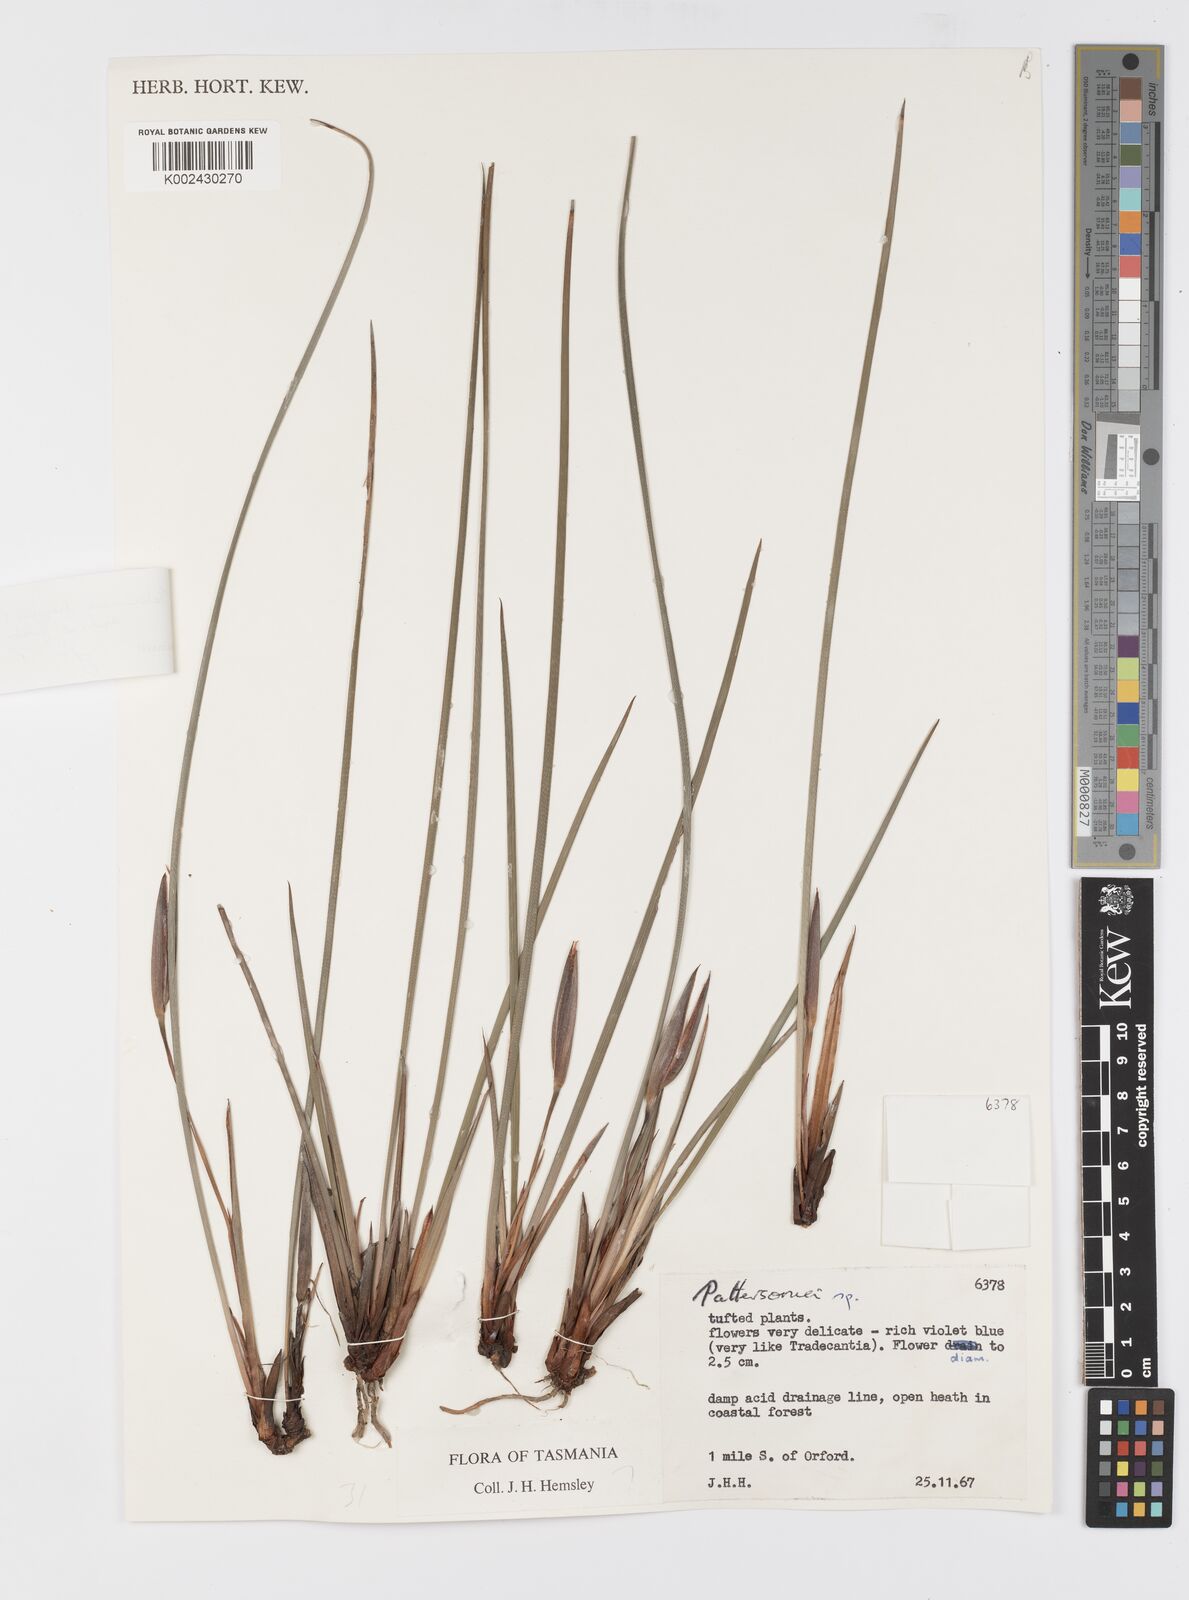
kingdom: Plantae
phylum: Tracheophyta
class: Liliopsida
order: Asparagales
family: Iridaceae
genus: Patersonia
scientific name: Patersonia fragilis
